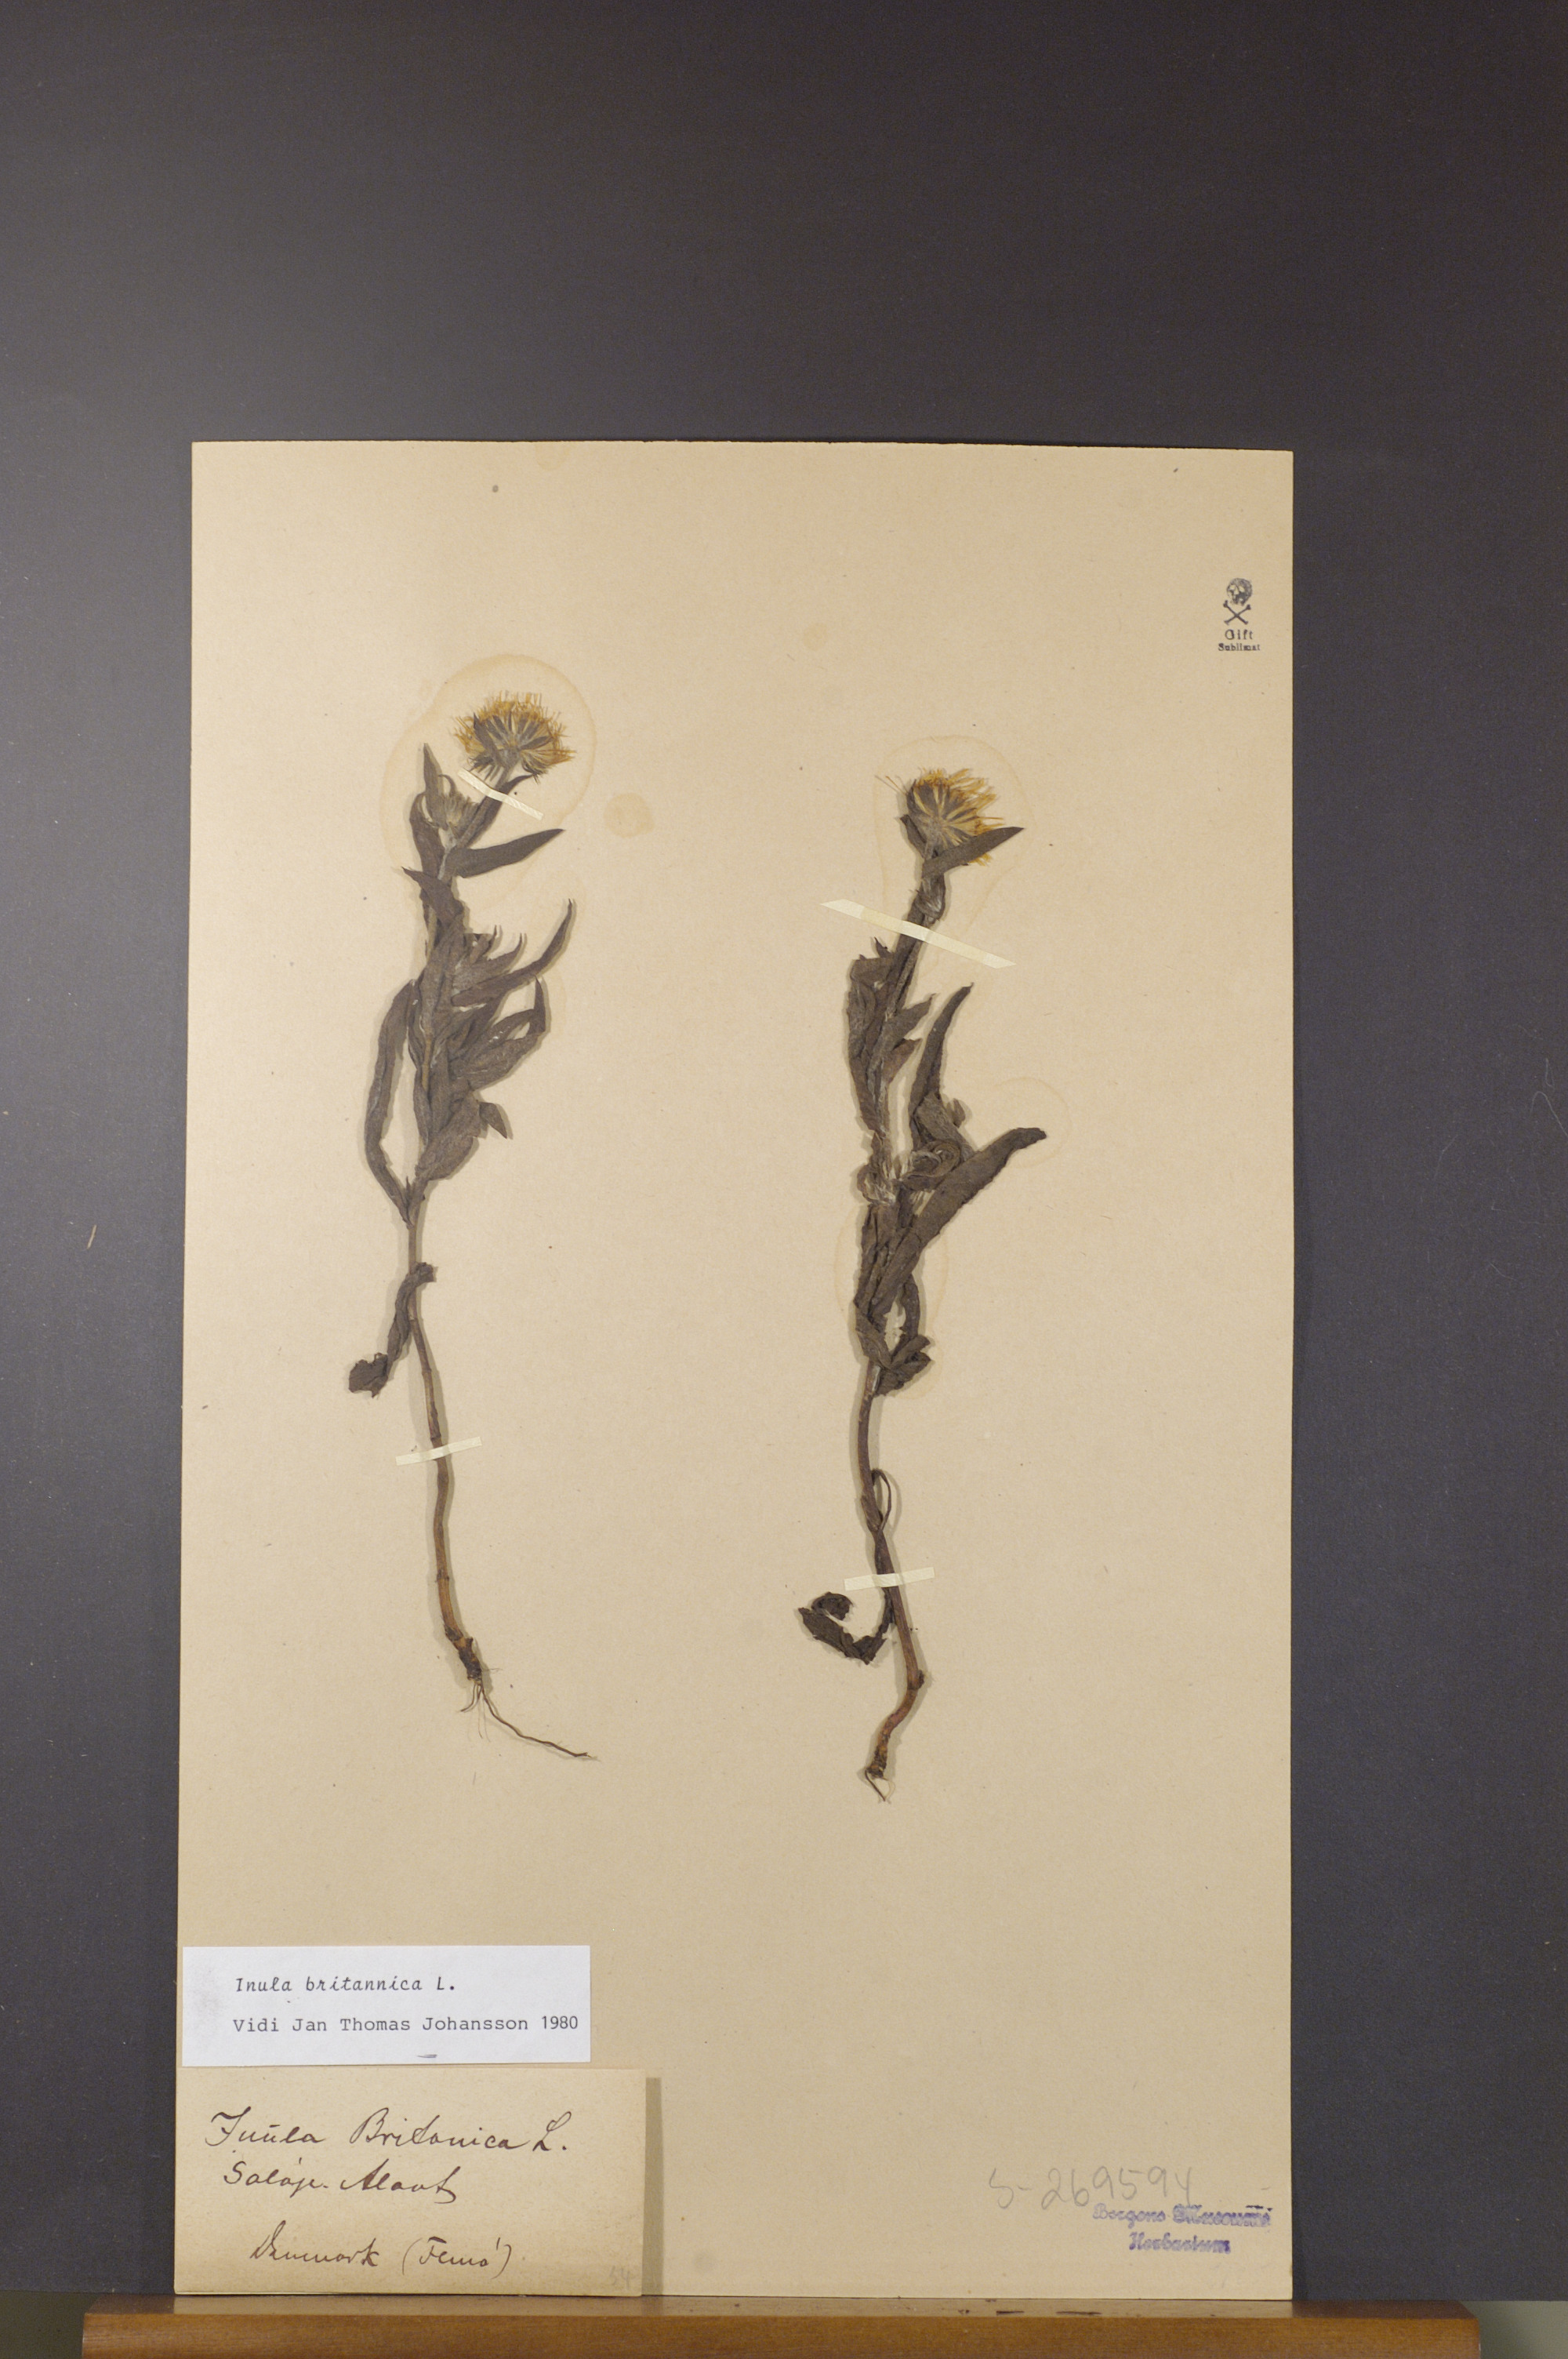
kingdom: Plantae
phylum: Tracheophyta
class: Magnoliopsida
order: Asterales
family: Asteraceae
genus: Pentanema
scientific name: Pentanema britannicum
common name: British elecampane
